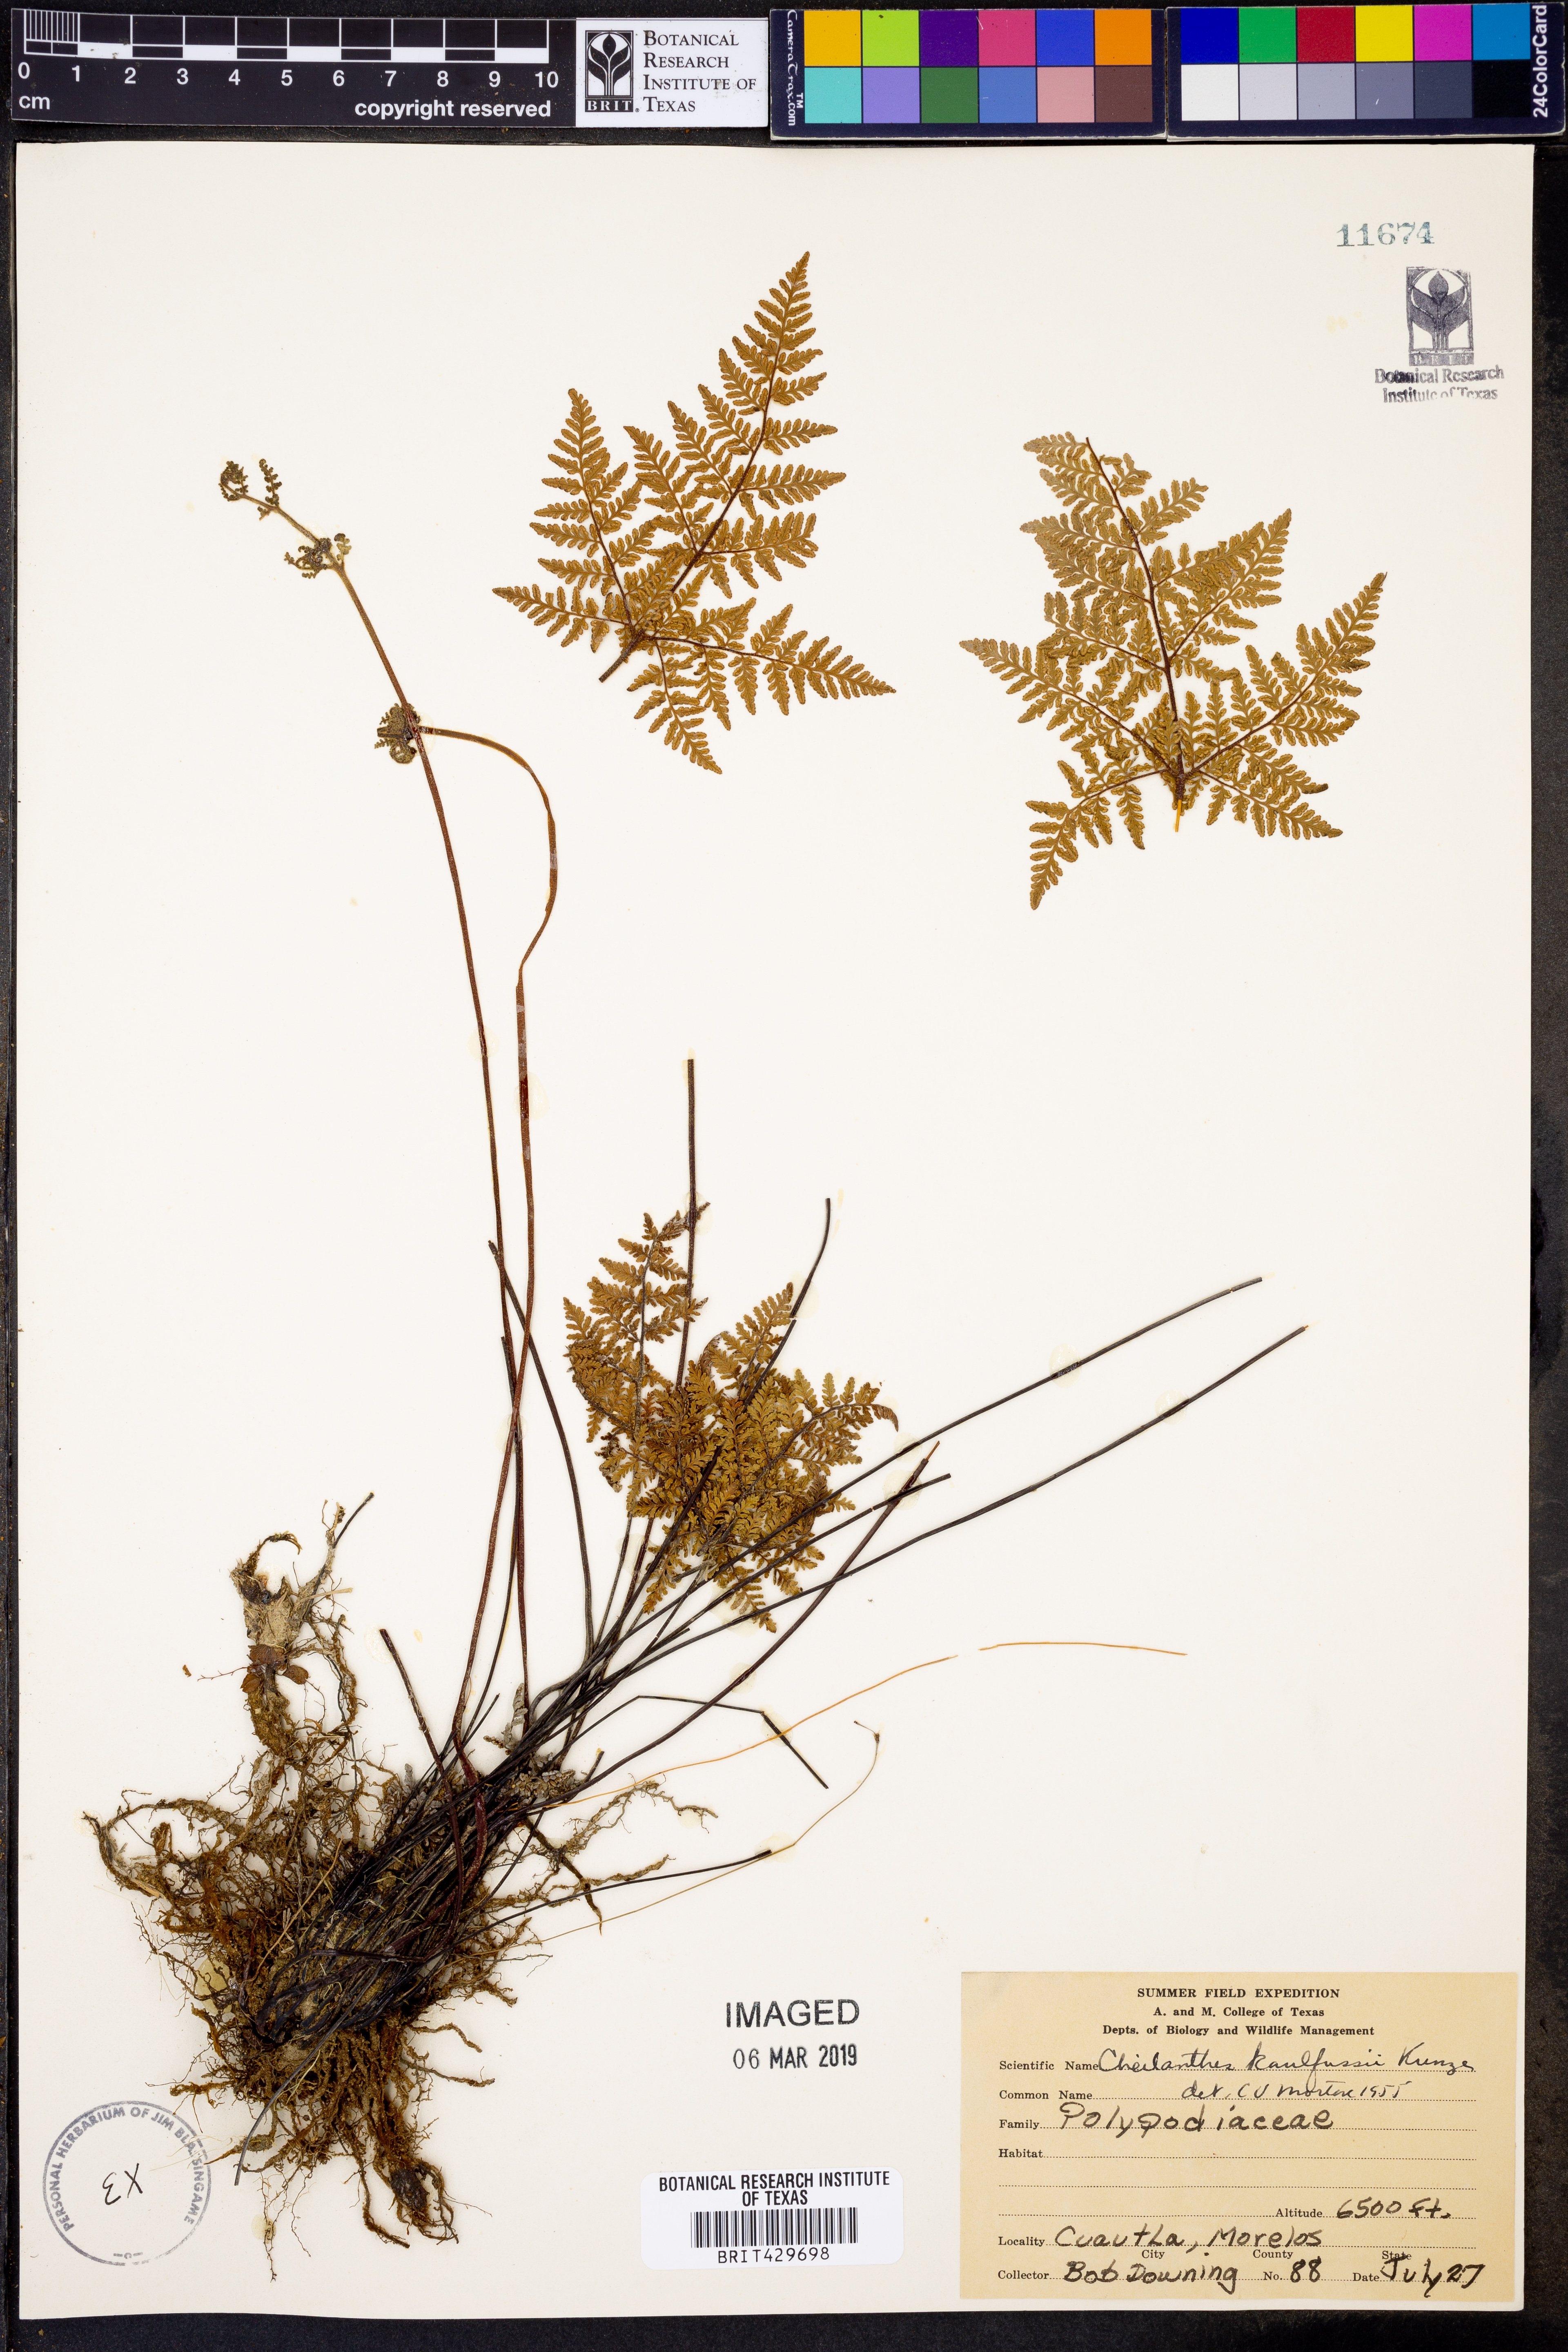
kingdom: Plantae
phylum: Tracheophyta
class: Polypodiopsida
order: Polypodiales
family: Pteridaceae
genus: Gaga
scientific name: Gaga kaulfussii
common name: Glandular lip fern
